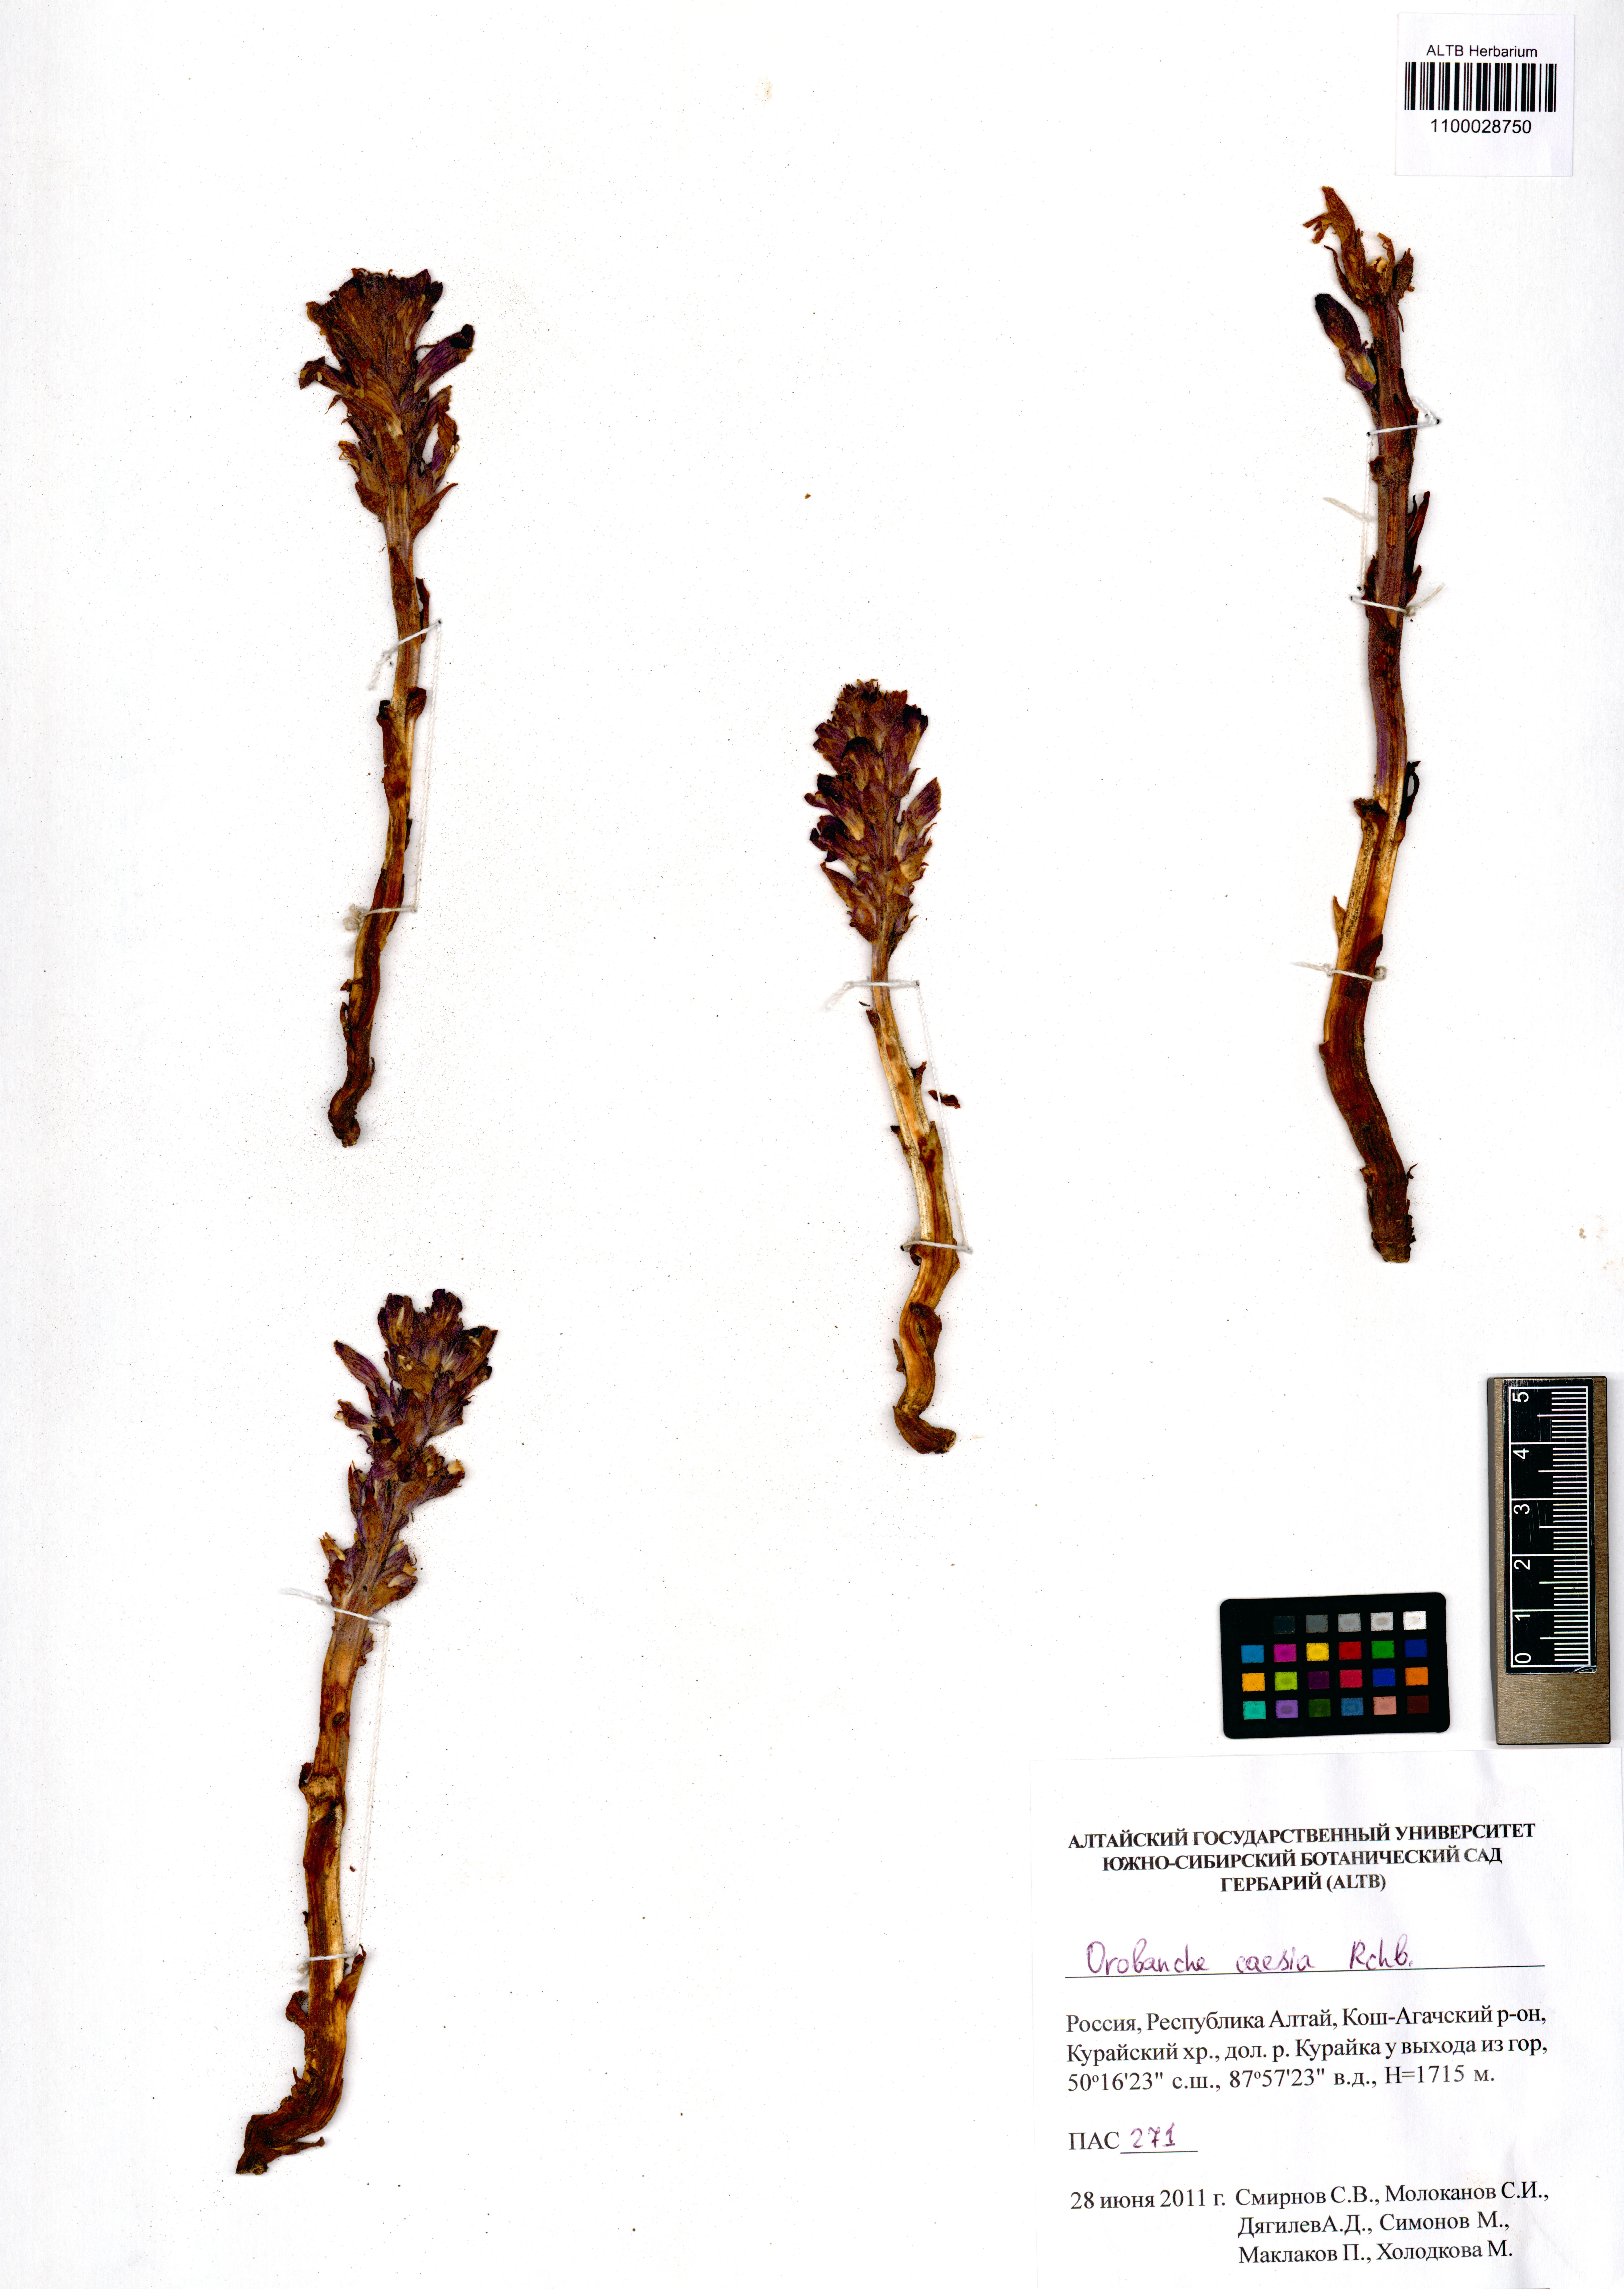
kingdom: Plantae
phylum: Tracheophyta
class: Magnoliopsida
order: Lamiales
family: Orobanchaceae
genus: Phelipanche
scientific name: Phelipanche caesia
